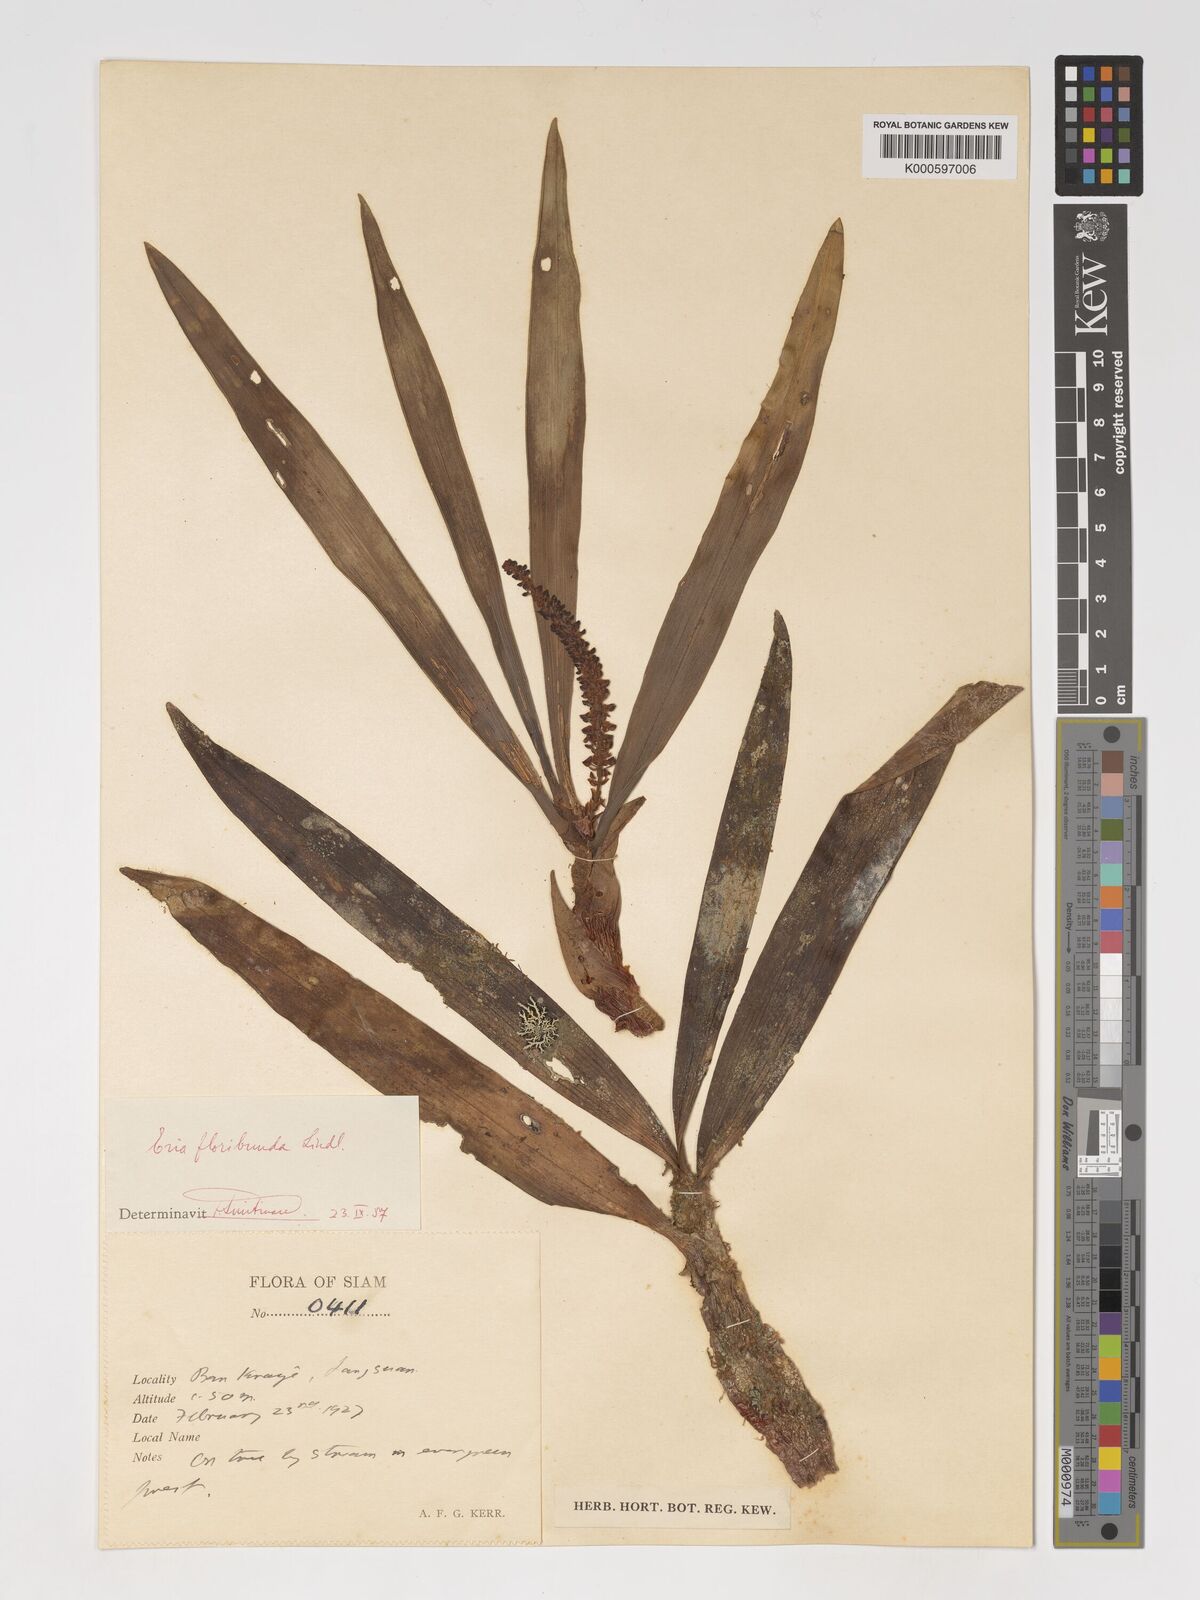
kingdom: Plantae
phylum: Tracheophyta
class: Liliopsida
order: Asparagales
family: Orchidaceae
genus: Pinalia
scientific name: Pinalia floribunda
